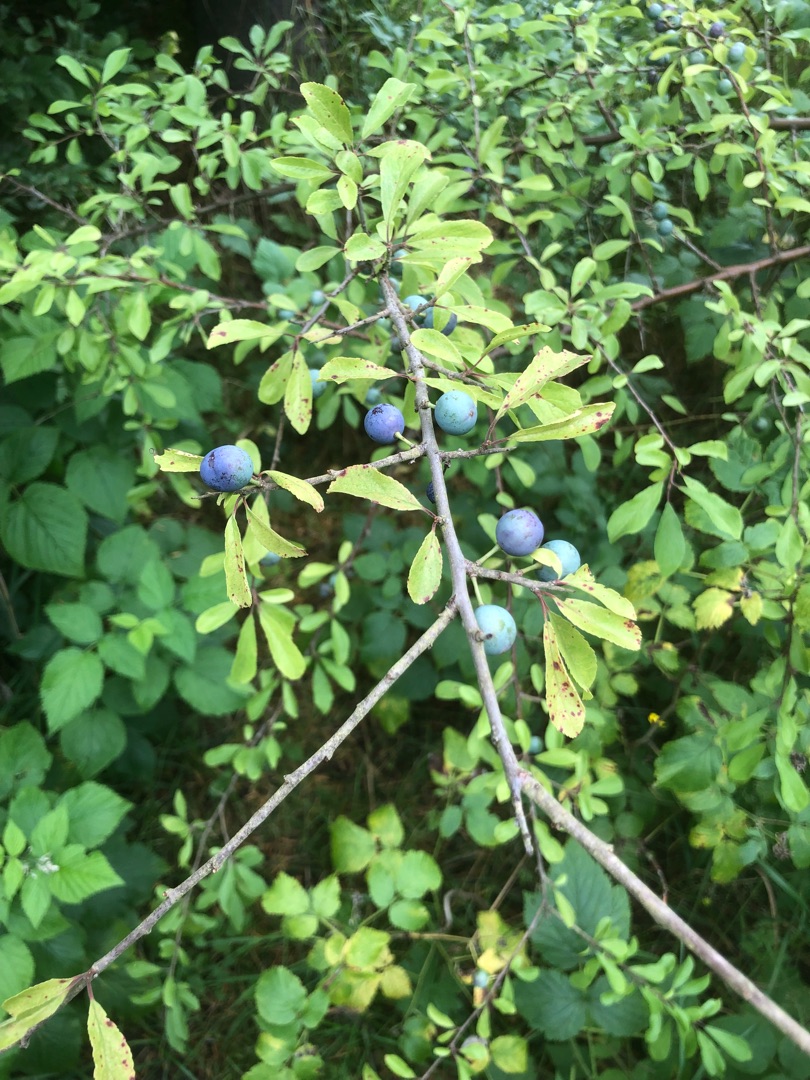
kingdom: Plantae
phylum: Tracheophyta
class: Magnoliopsida
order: Rosales
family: Rosaceae
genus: Prunus
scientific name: Prunus spinosa
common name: Slåen
